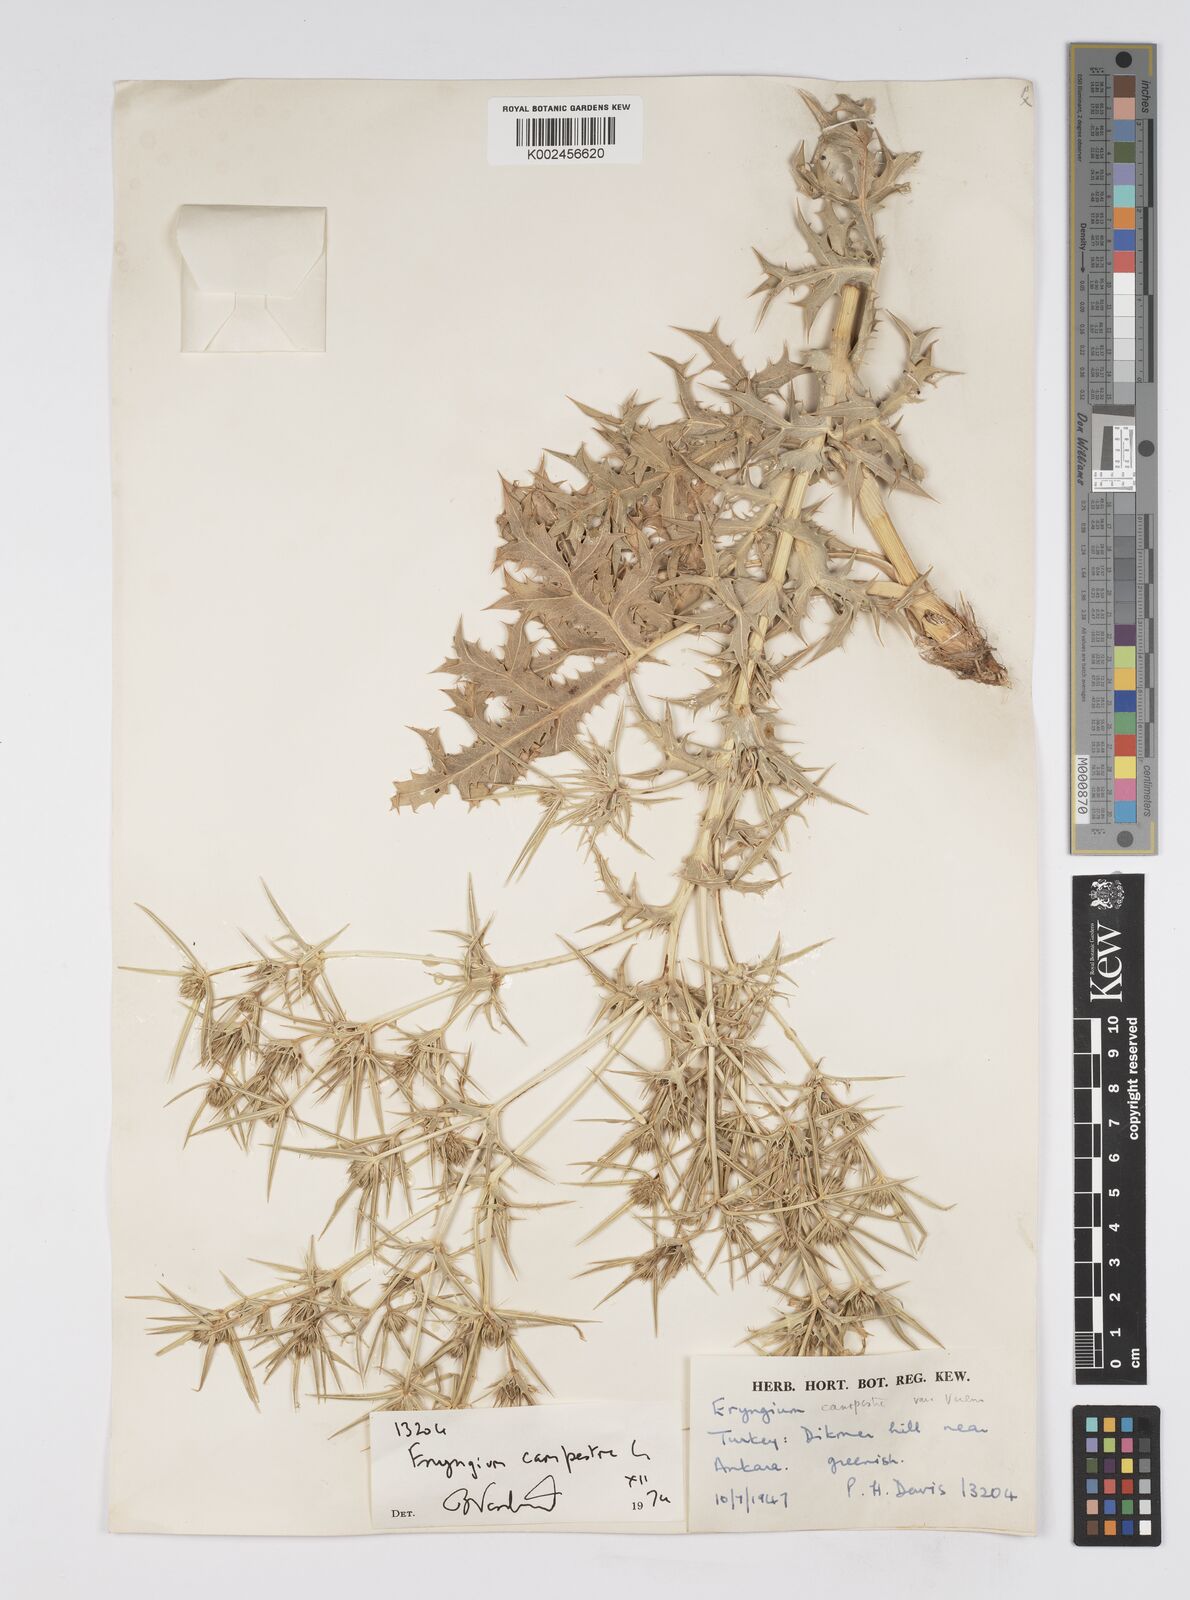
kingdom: Plantae
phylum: Tracheophyta
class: Magnoliopsida
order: Apiales
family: Apiaceae
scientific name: Apiaceae
